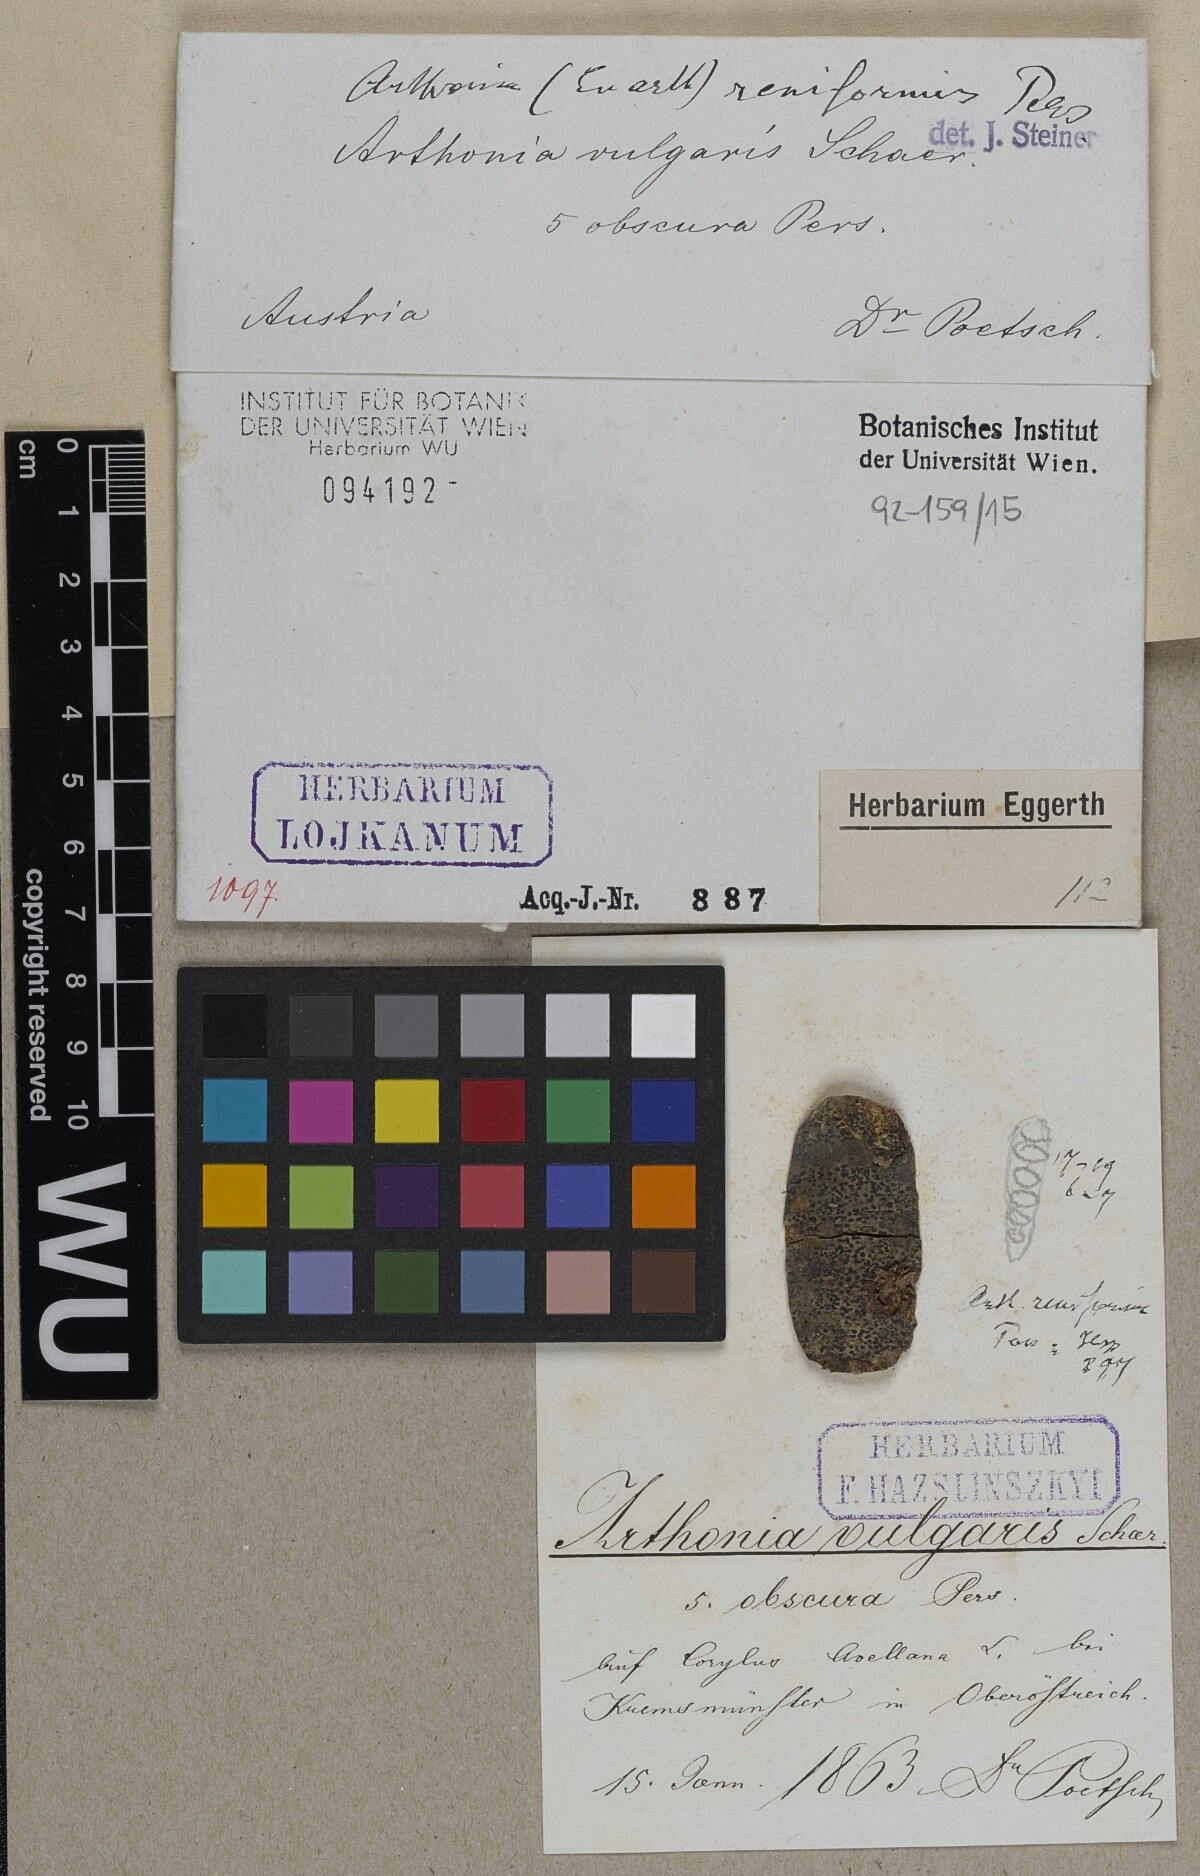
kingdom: Fungi
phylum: Ascomycota
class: Arthoniomycetes
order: Arthoniales
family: Arthoniaceae
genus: Arthonia
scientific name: Arthonia reniformis
